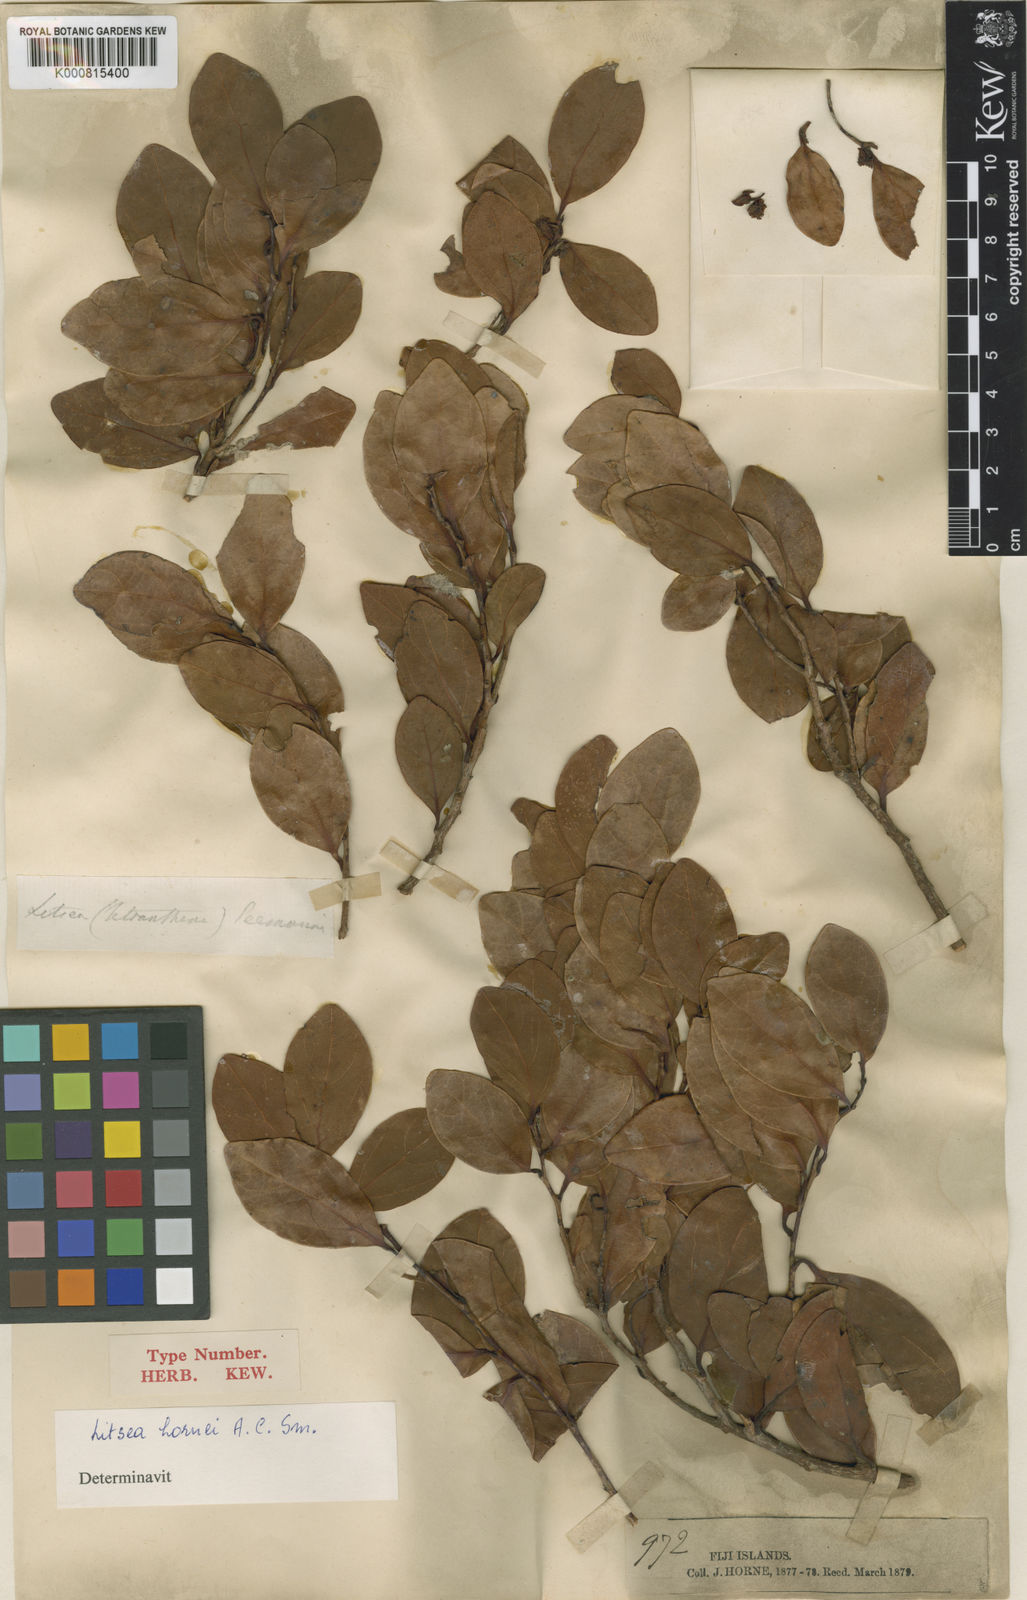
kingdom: Plantae
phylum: Tracheophyta
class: Magnoliopsida
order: Laurales
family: Lauraceae
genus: Litsea
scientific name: Litsea hornei
